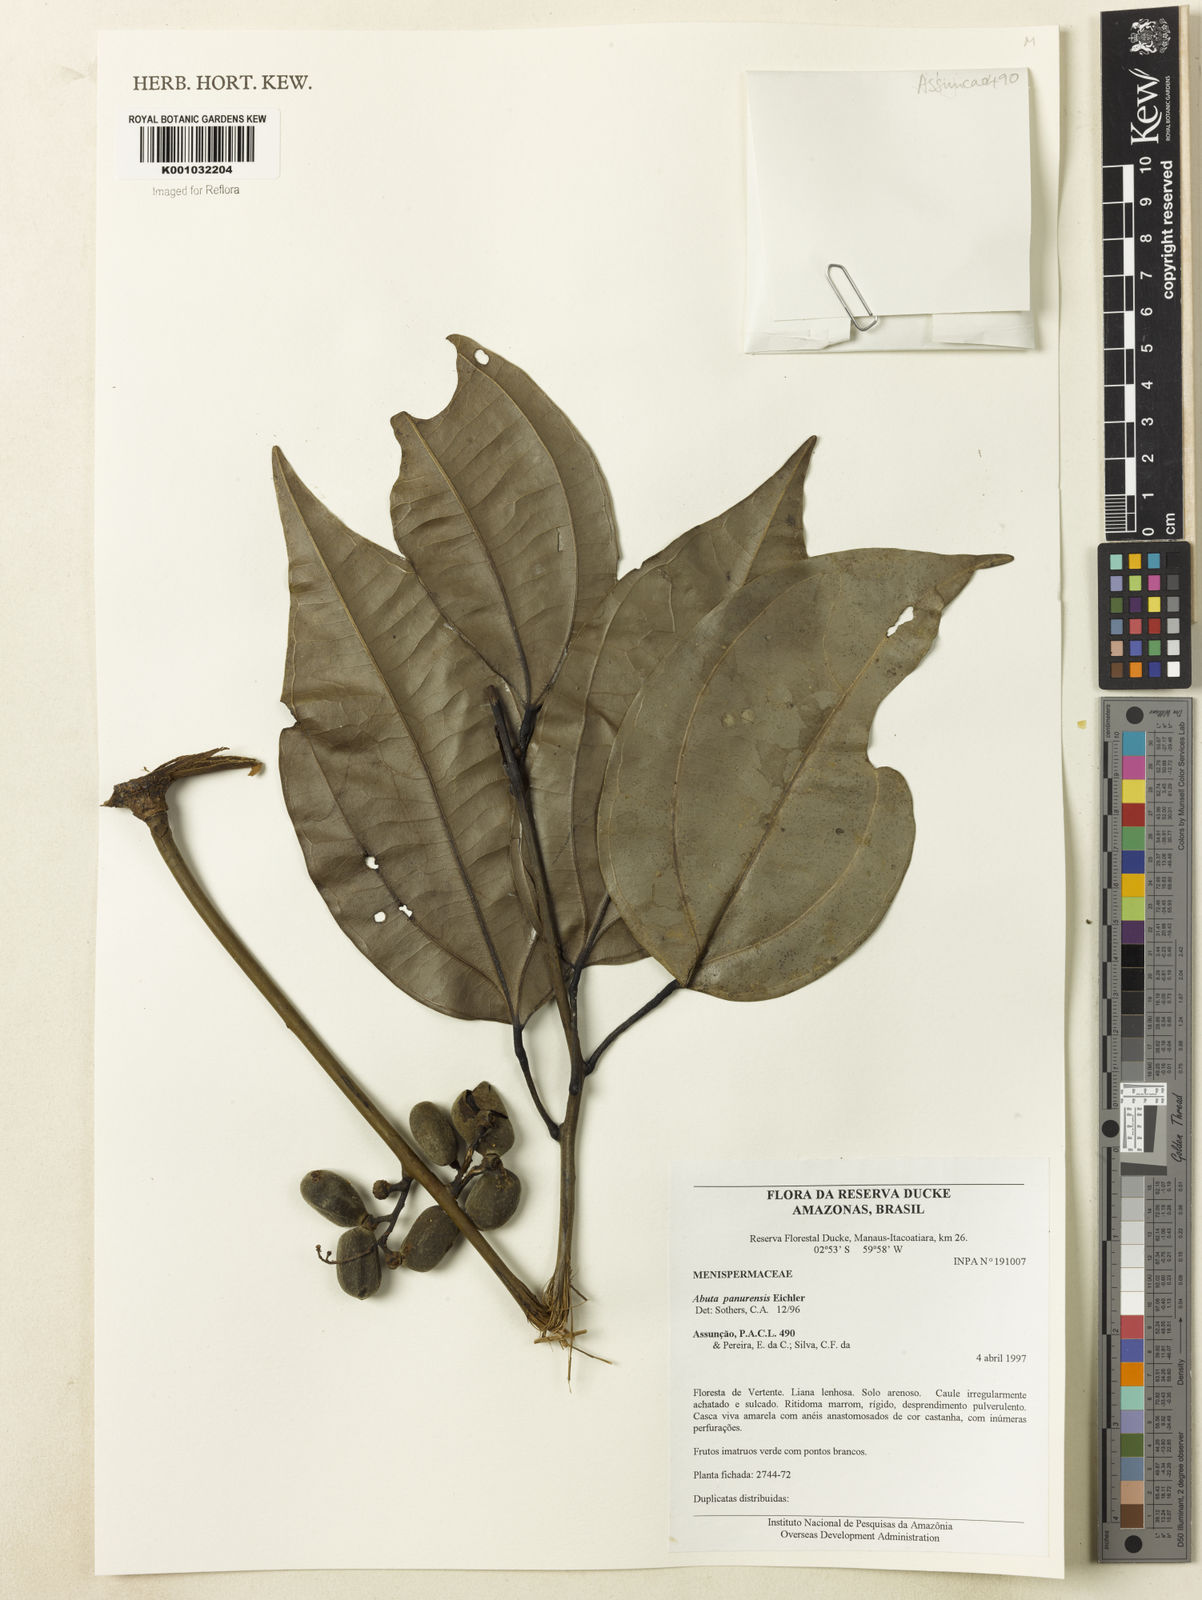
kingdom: Plantae
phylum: Tracheophyta
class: Magnoliopsida
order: Ranunculales
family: Menispermaceae
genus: Abuta
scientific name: Abuta panurensis
